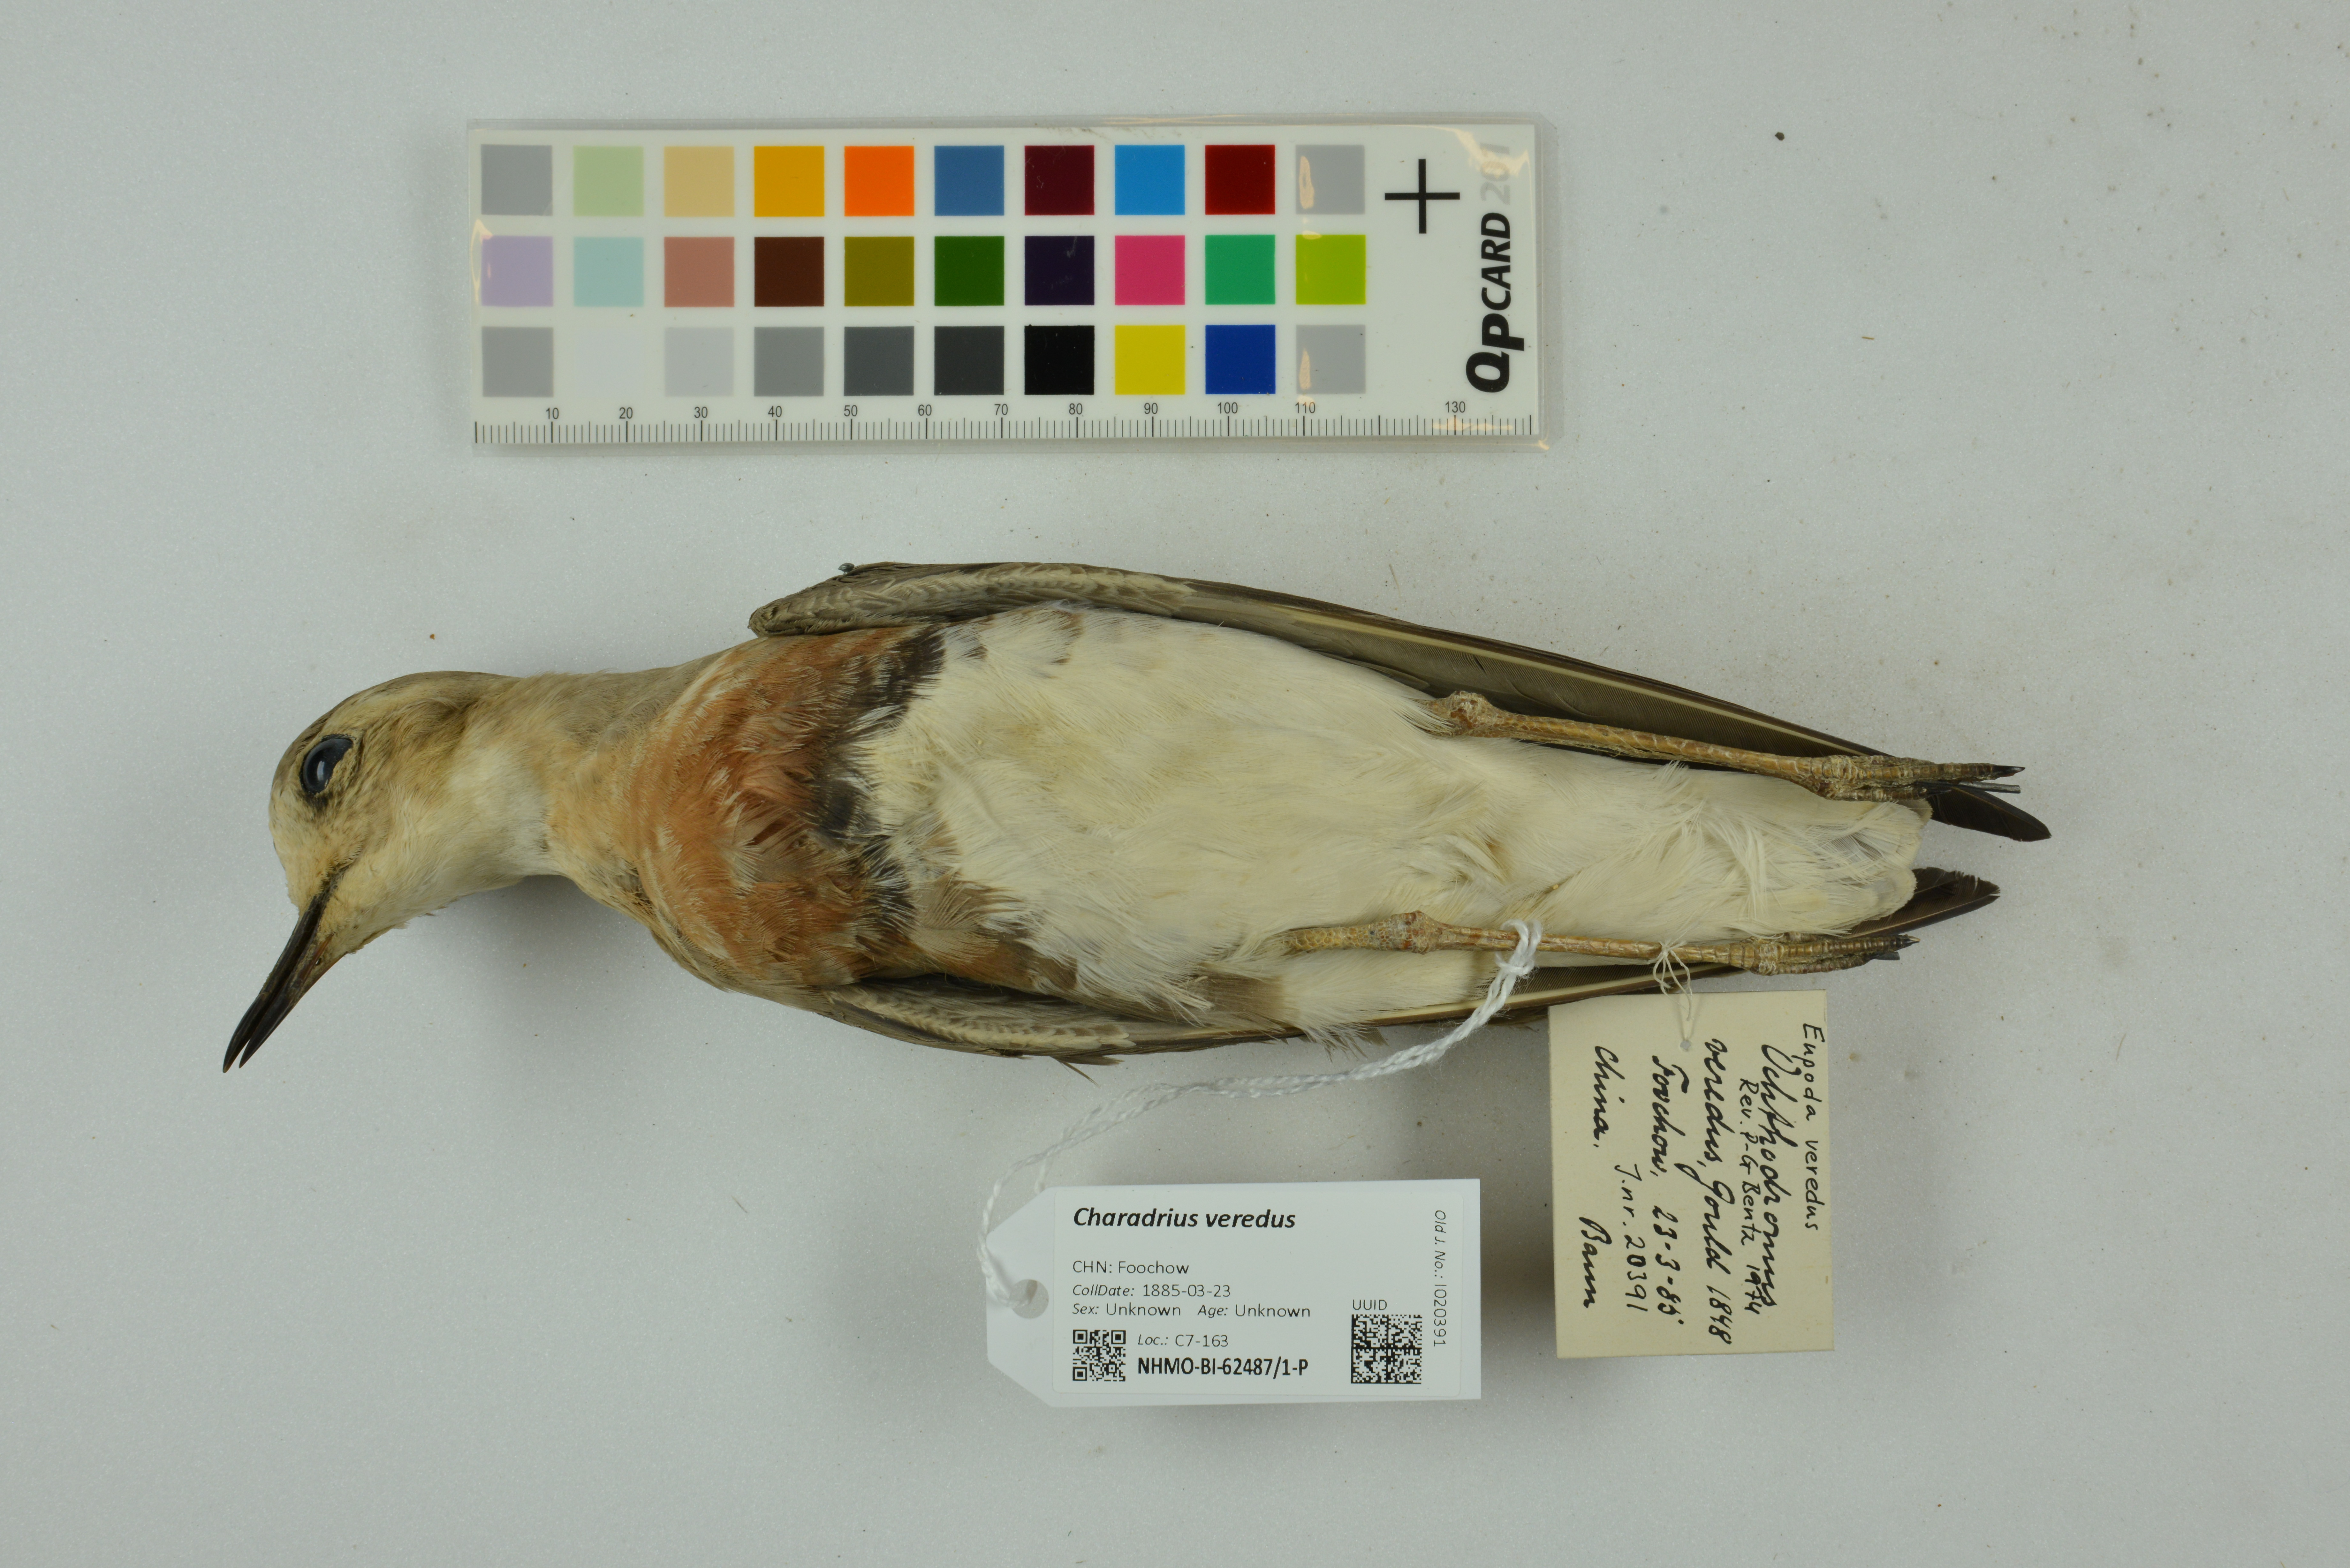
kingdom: Animalia
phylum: Chordata
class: Aves
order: Charadriiformes
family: Charadriidae
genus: Charadrius
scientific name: Charadrius veredus
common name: Oriental plover
